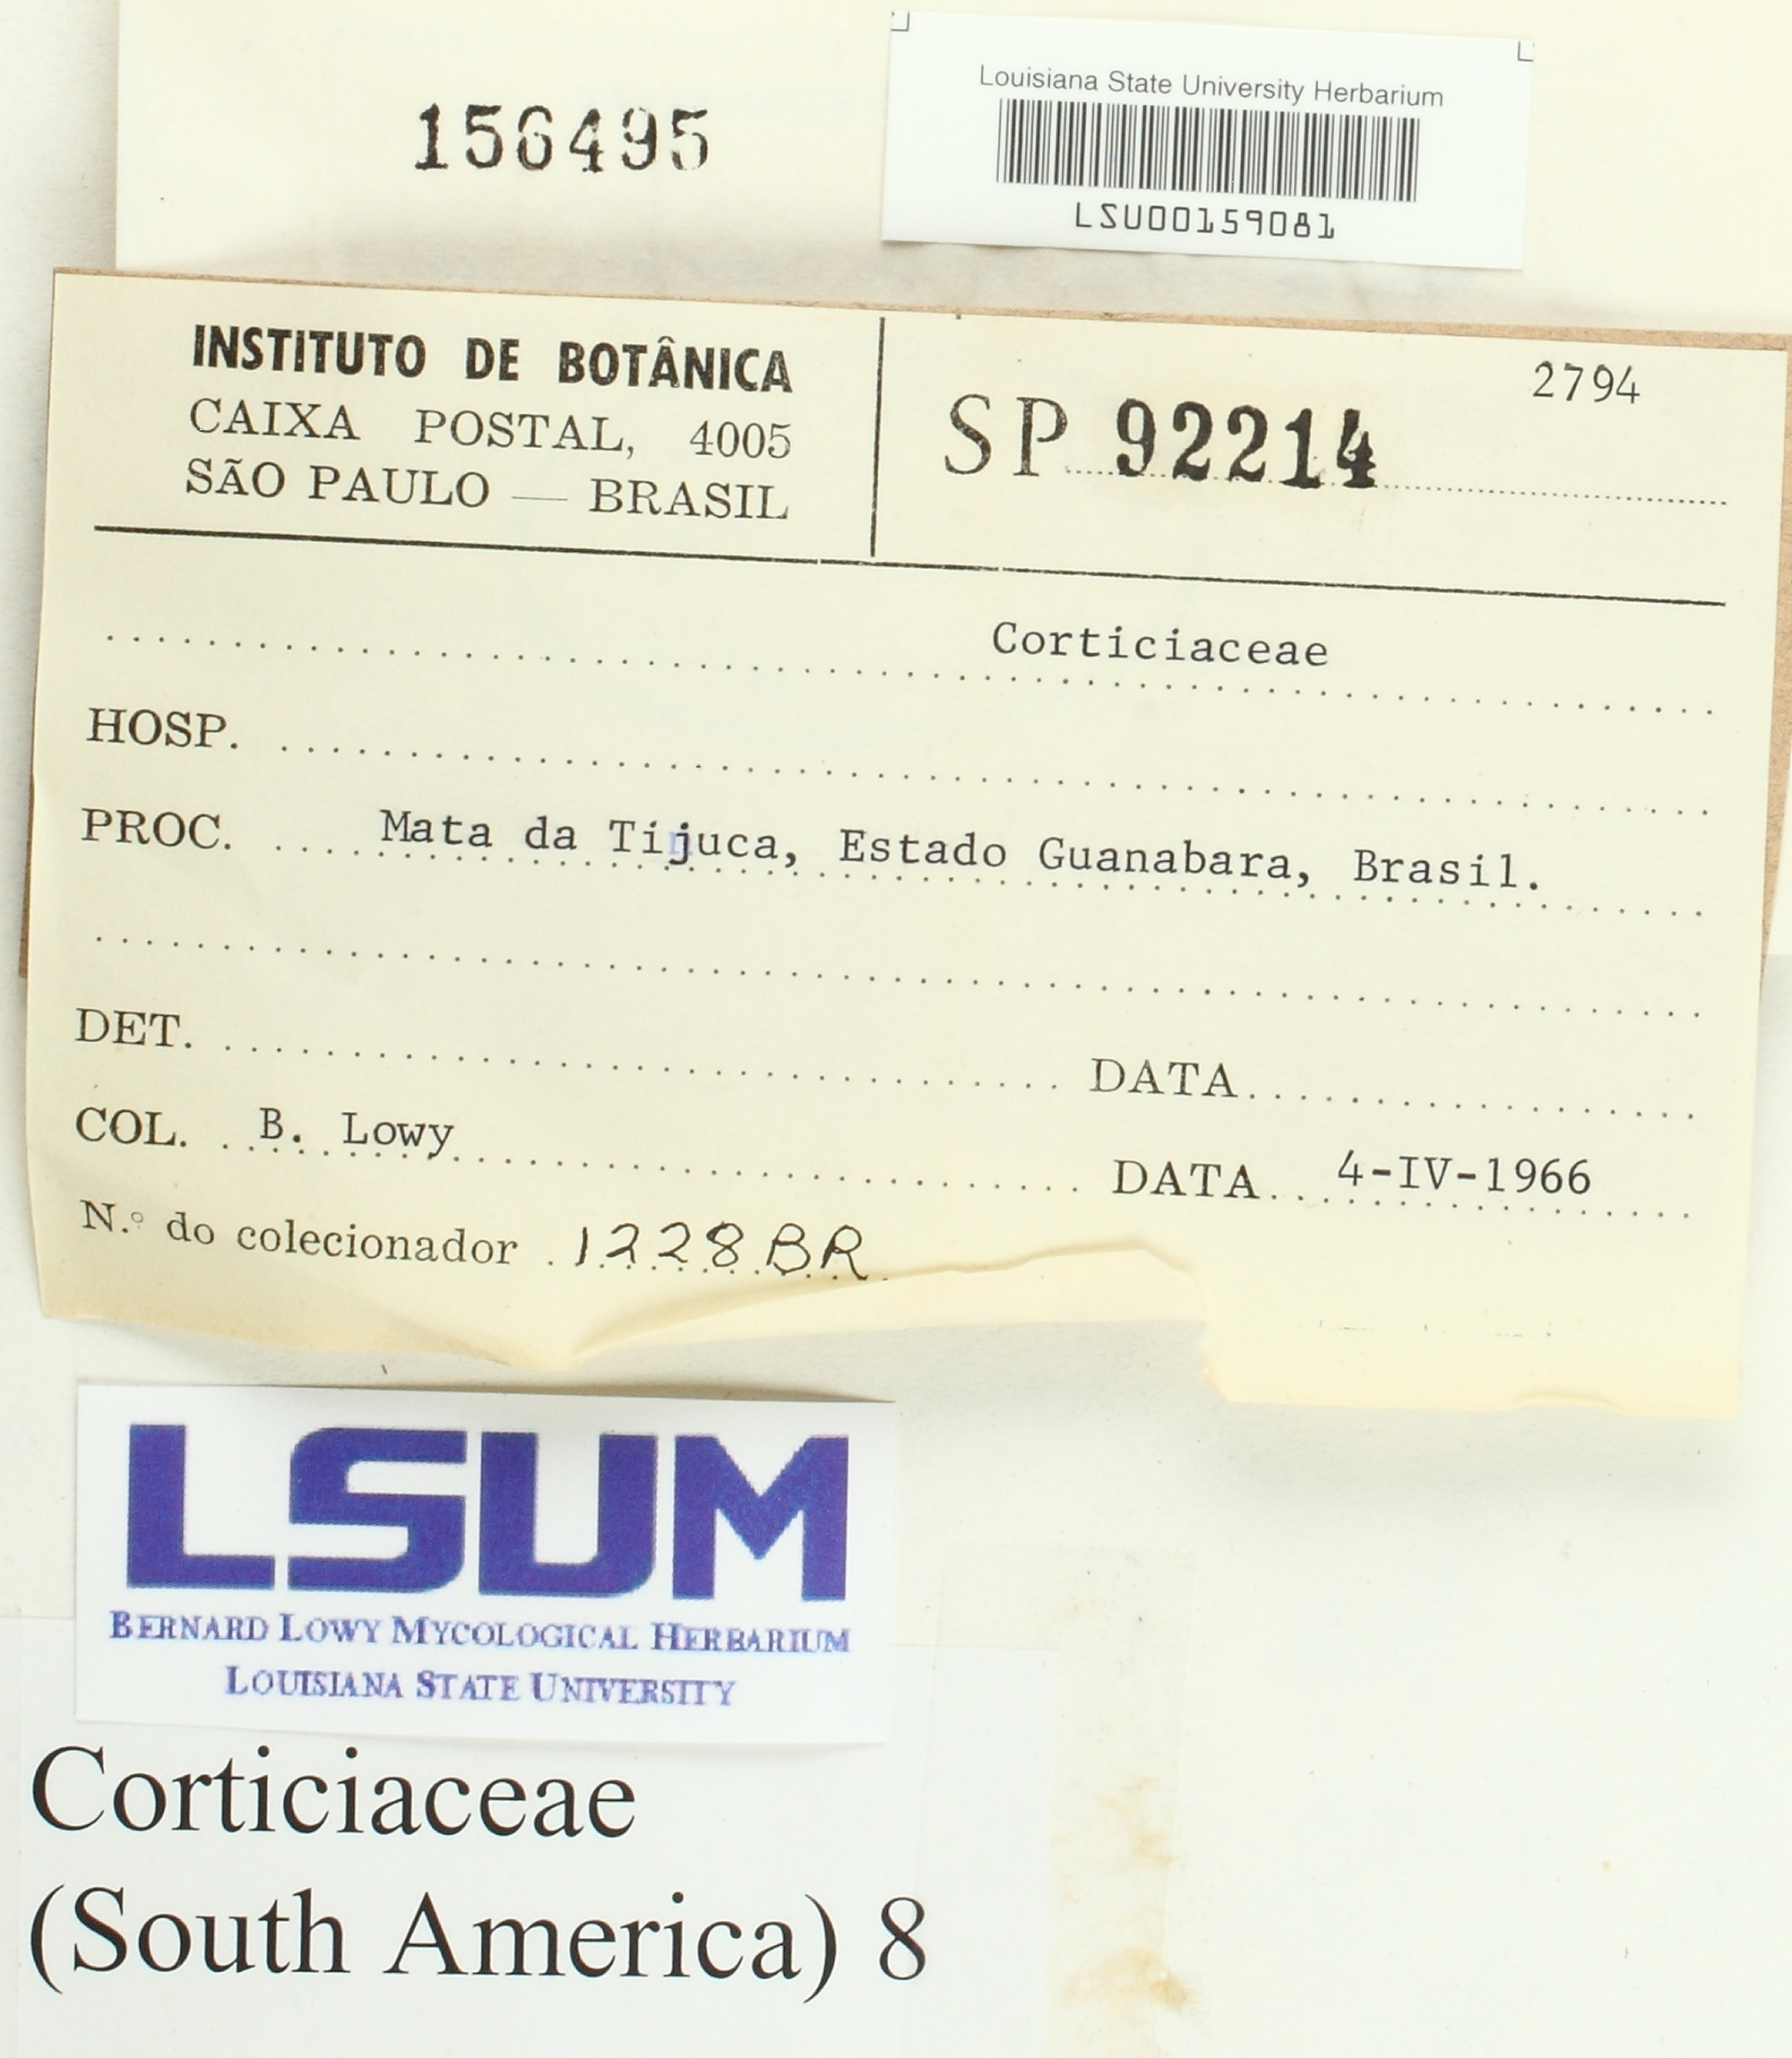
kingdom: Fungi
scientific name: Fungi
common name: Fungi
